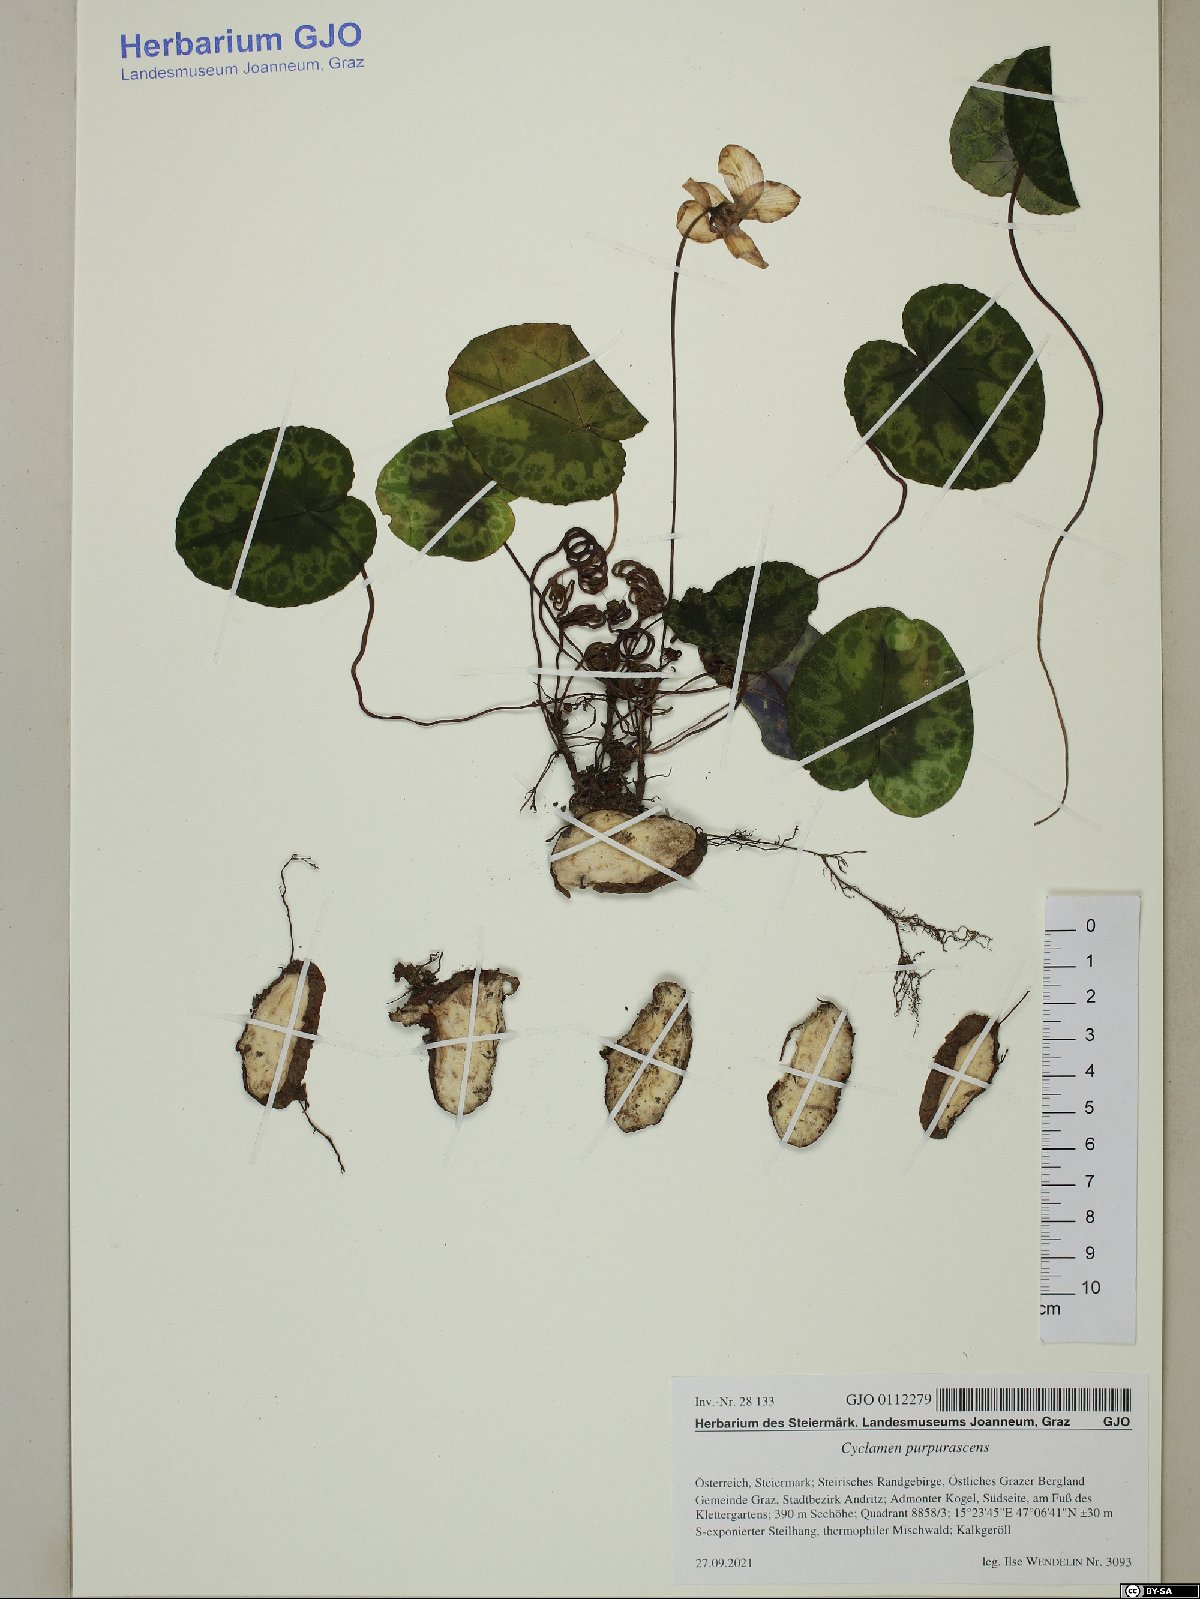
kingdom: Plantae
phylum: Tracheophyta
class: Magnoliopsida
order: Ericales
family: Primulaceae
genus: Cyclamen
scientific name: Cyclamen purpurascens
